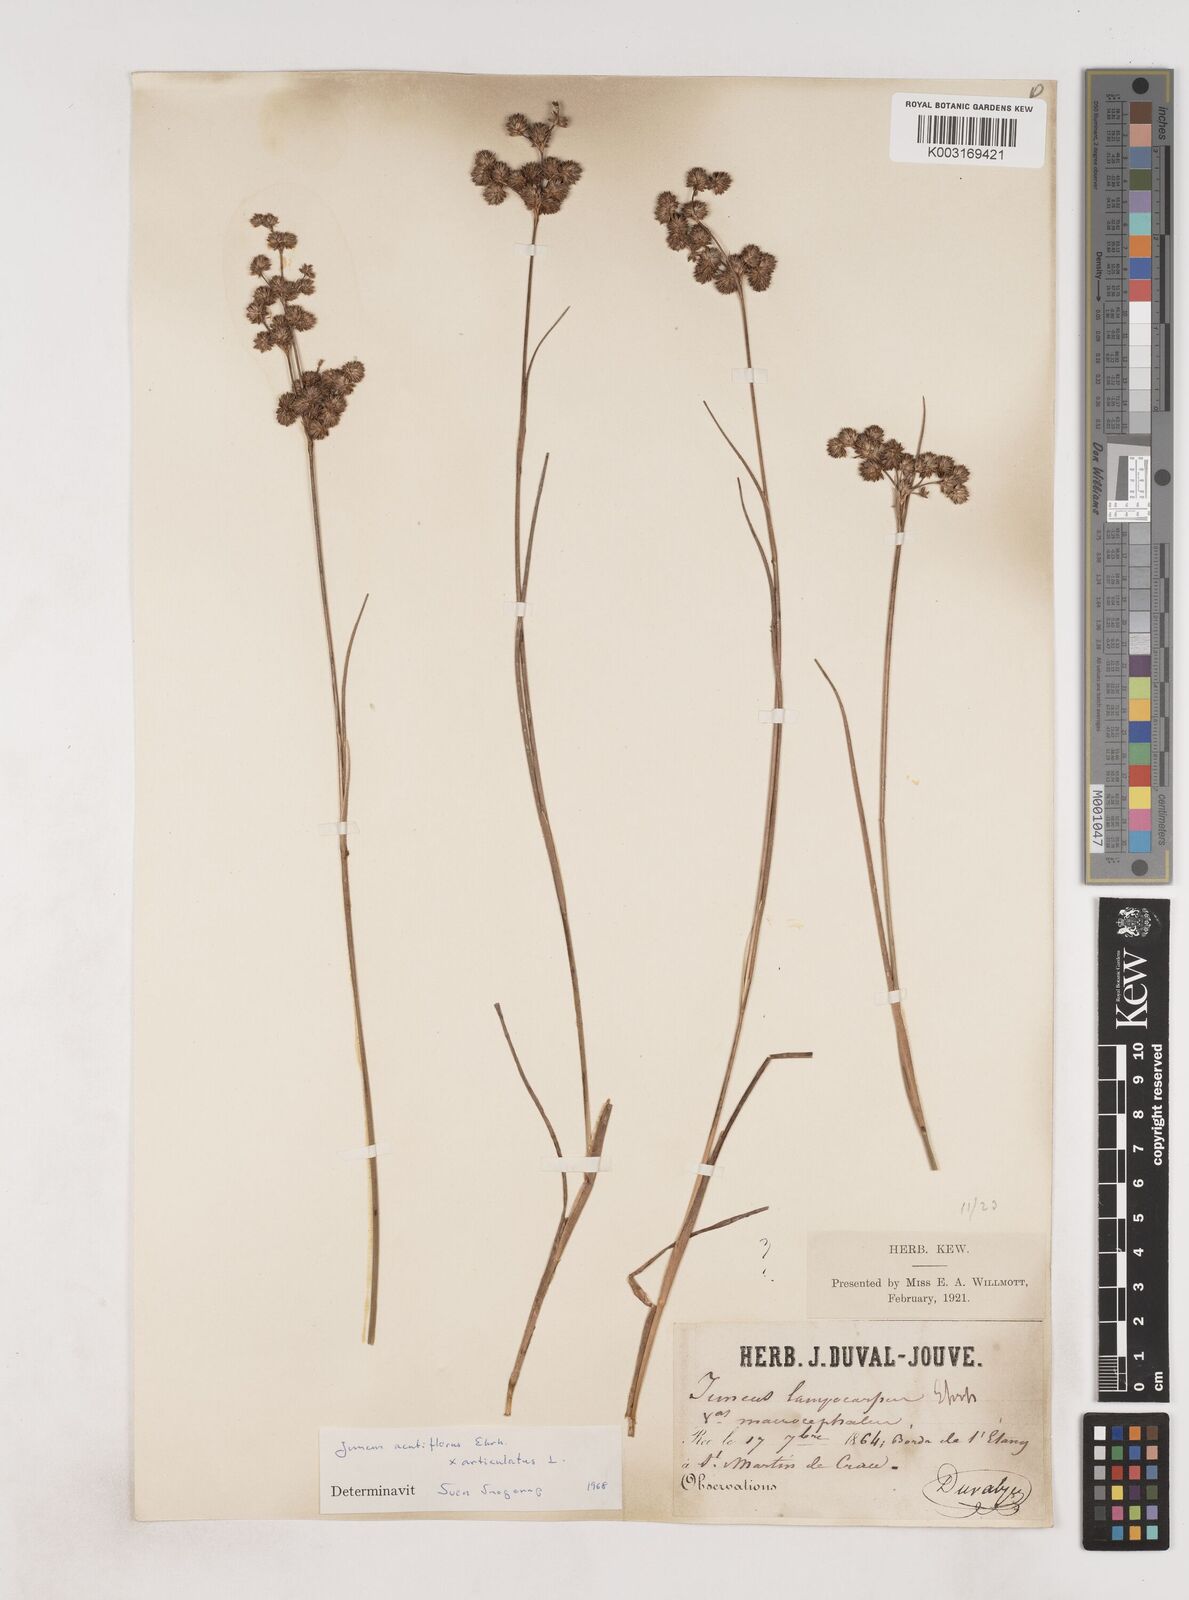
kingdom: Plantae
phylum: Tracheophyta
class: Liliopsida
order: Poales
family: Juncaceae
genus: Juncus
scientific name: Juncus acutiflorus
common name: Sharp-flowered rush
